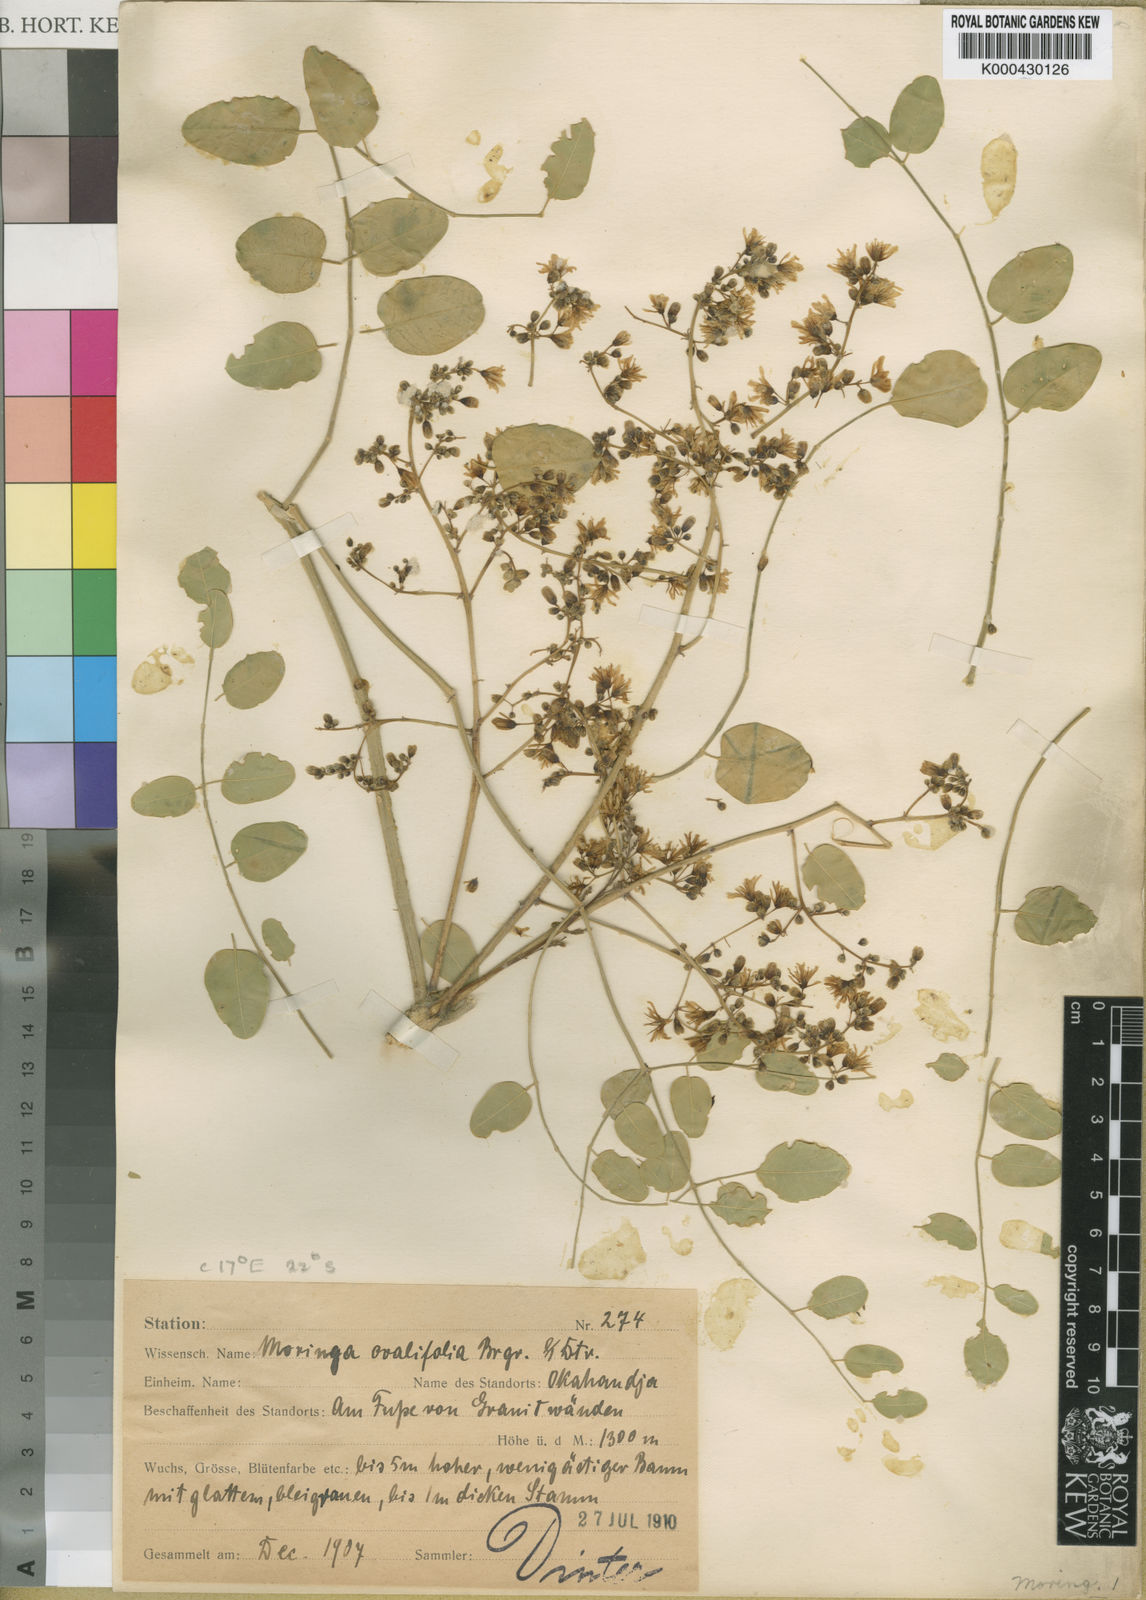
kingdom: Plantae
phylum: Tracheophyta
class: Magnoliopsida
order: Brassicales
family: Moringaceae
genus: Moringa
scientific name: Moringa ovalifolia
